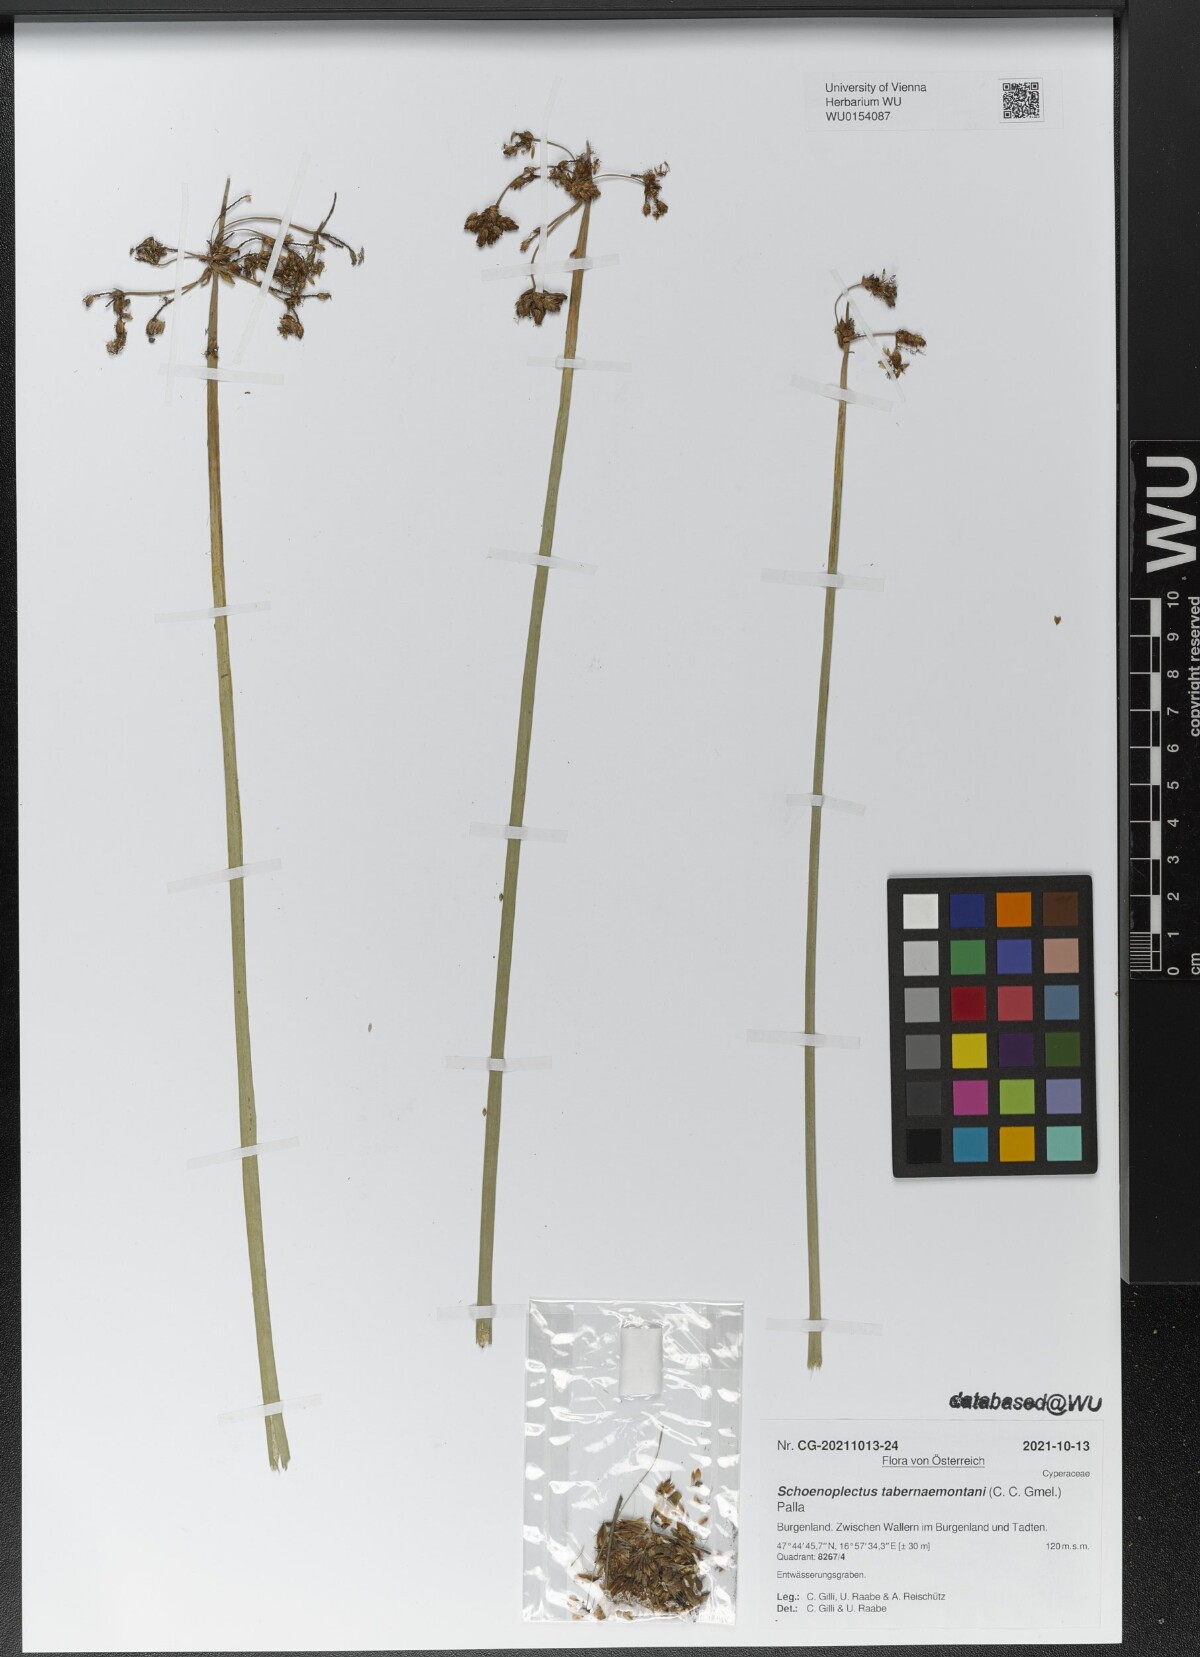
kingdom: Plantae
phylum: Tracheophyta
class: Liliopsida
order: Poales
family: Cyperaceae
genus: Schoenoplectus
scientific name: Schoenoplectus tabernaemontani
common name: Grey club-rush
